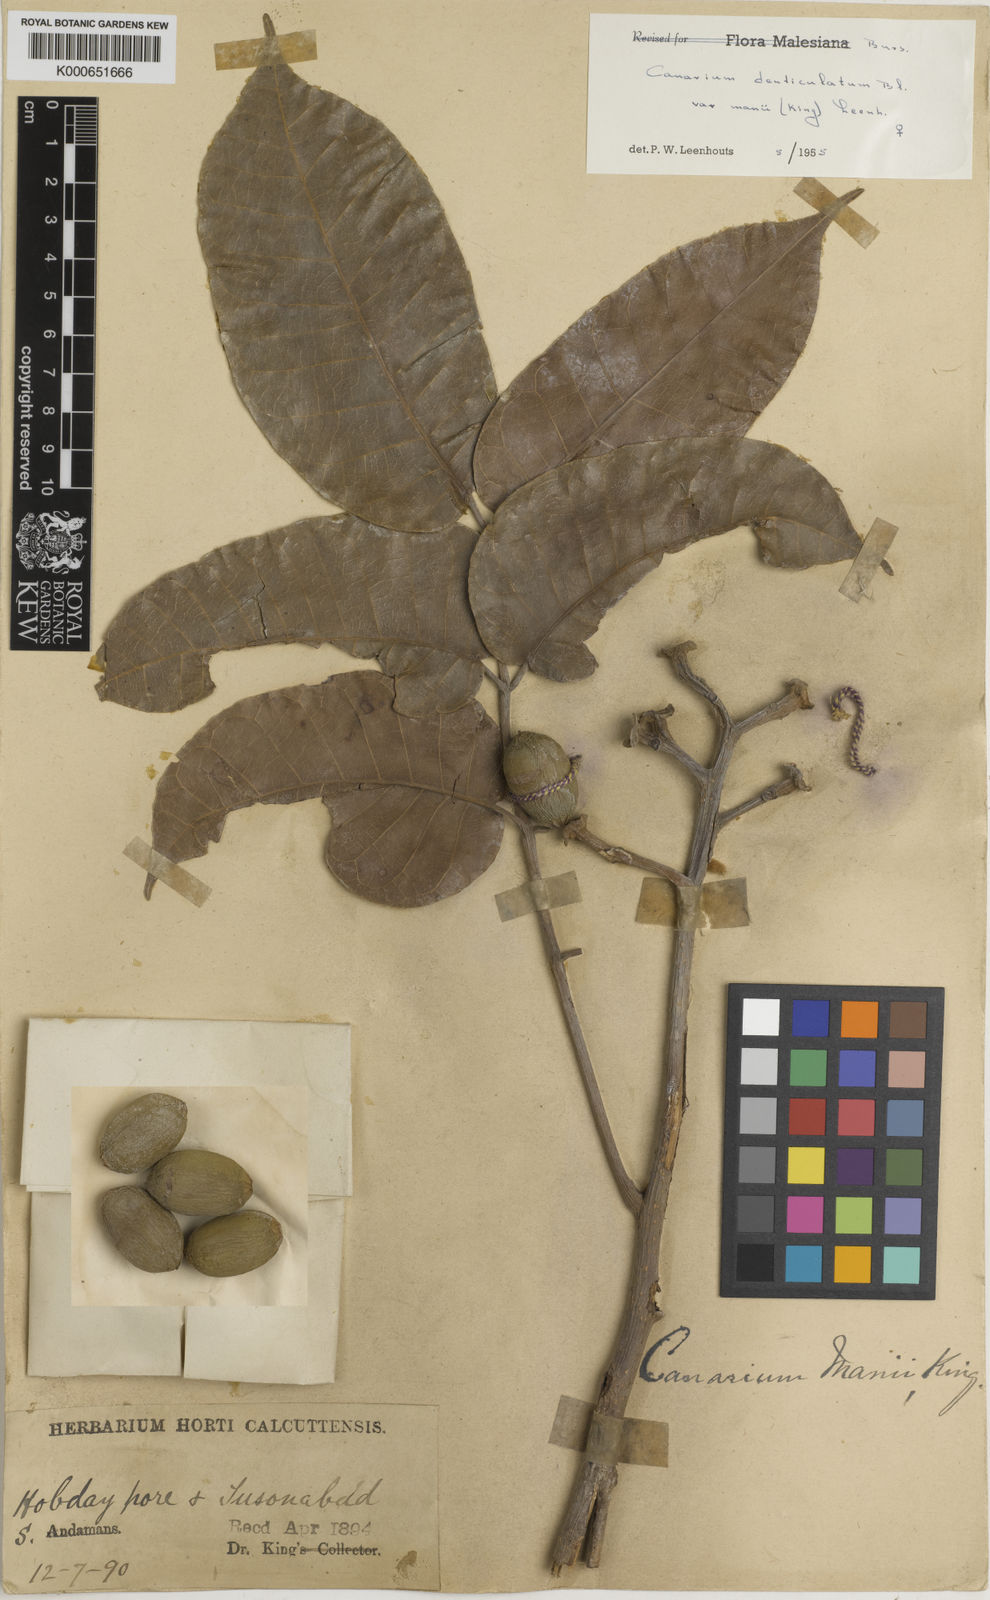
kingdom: Plantae
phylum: Tracheophyta
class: Magnoliopsida
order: Sapindales
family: Burseraceae
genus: Canarium
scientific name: Canarium manii
